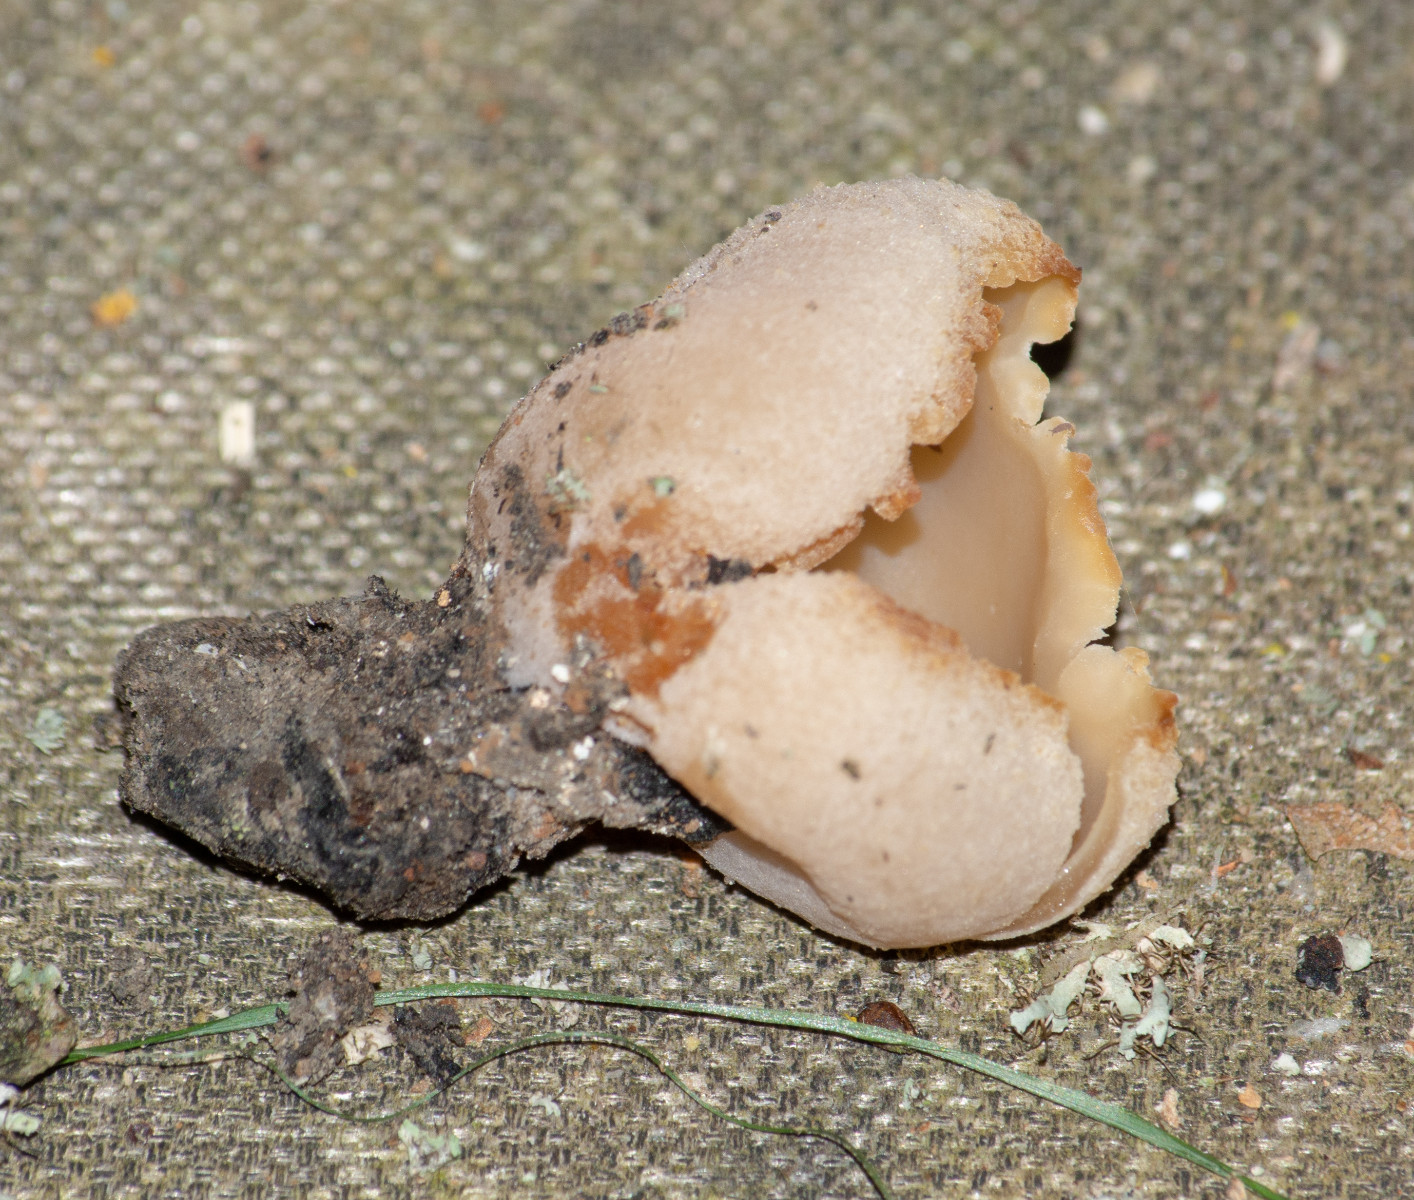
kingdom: Fungi
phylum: Ascomycota
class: Pezizomycetes
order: Pezizales
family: Pezizaceae
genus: Peziza
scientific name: Peziza
